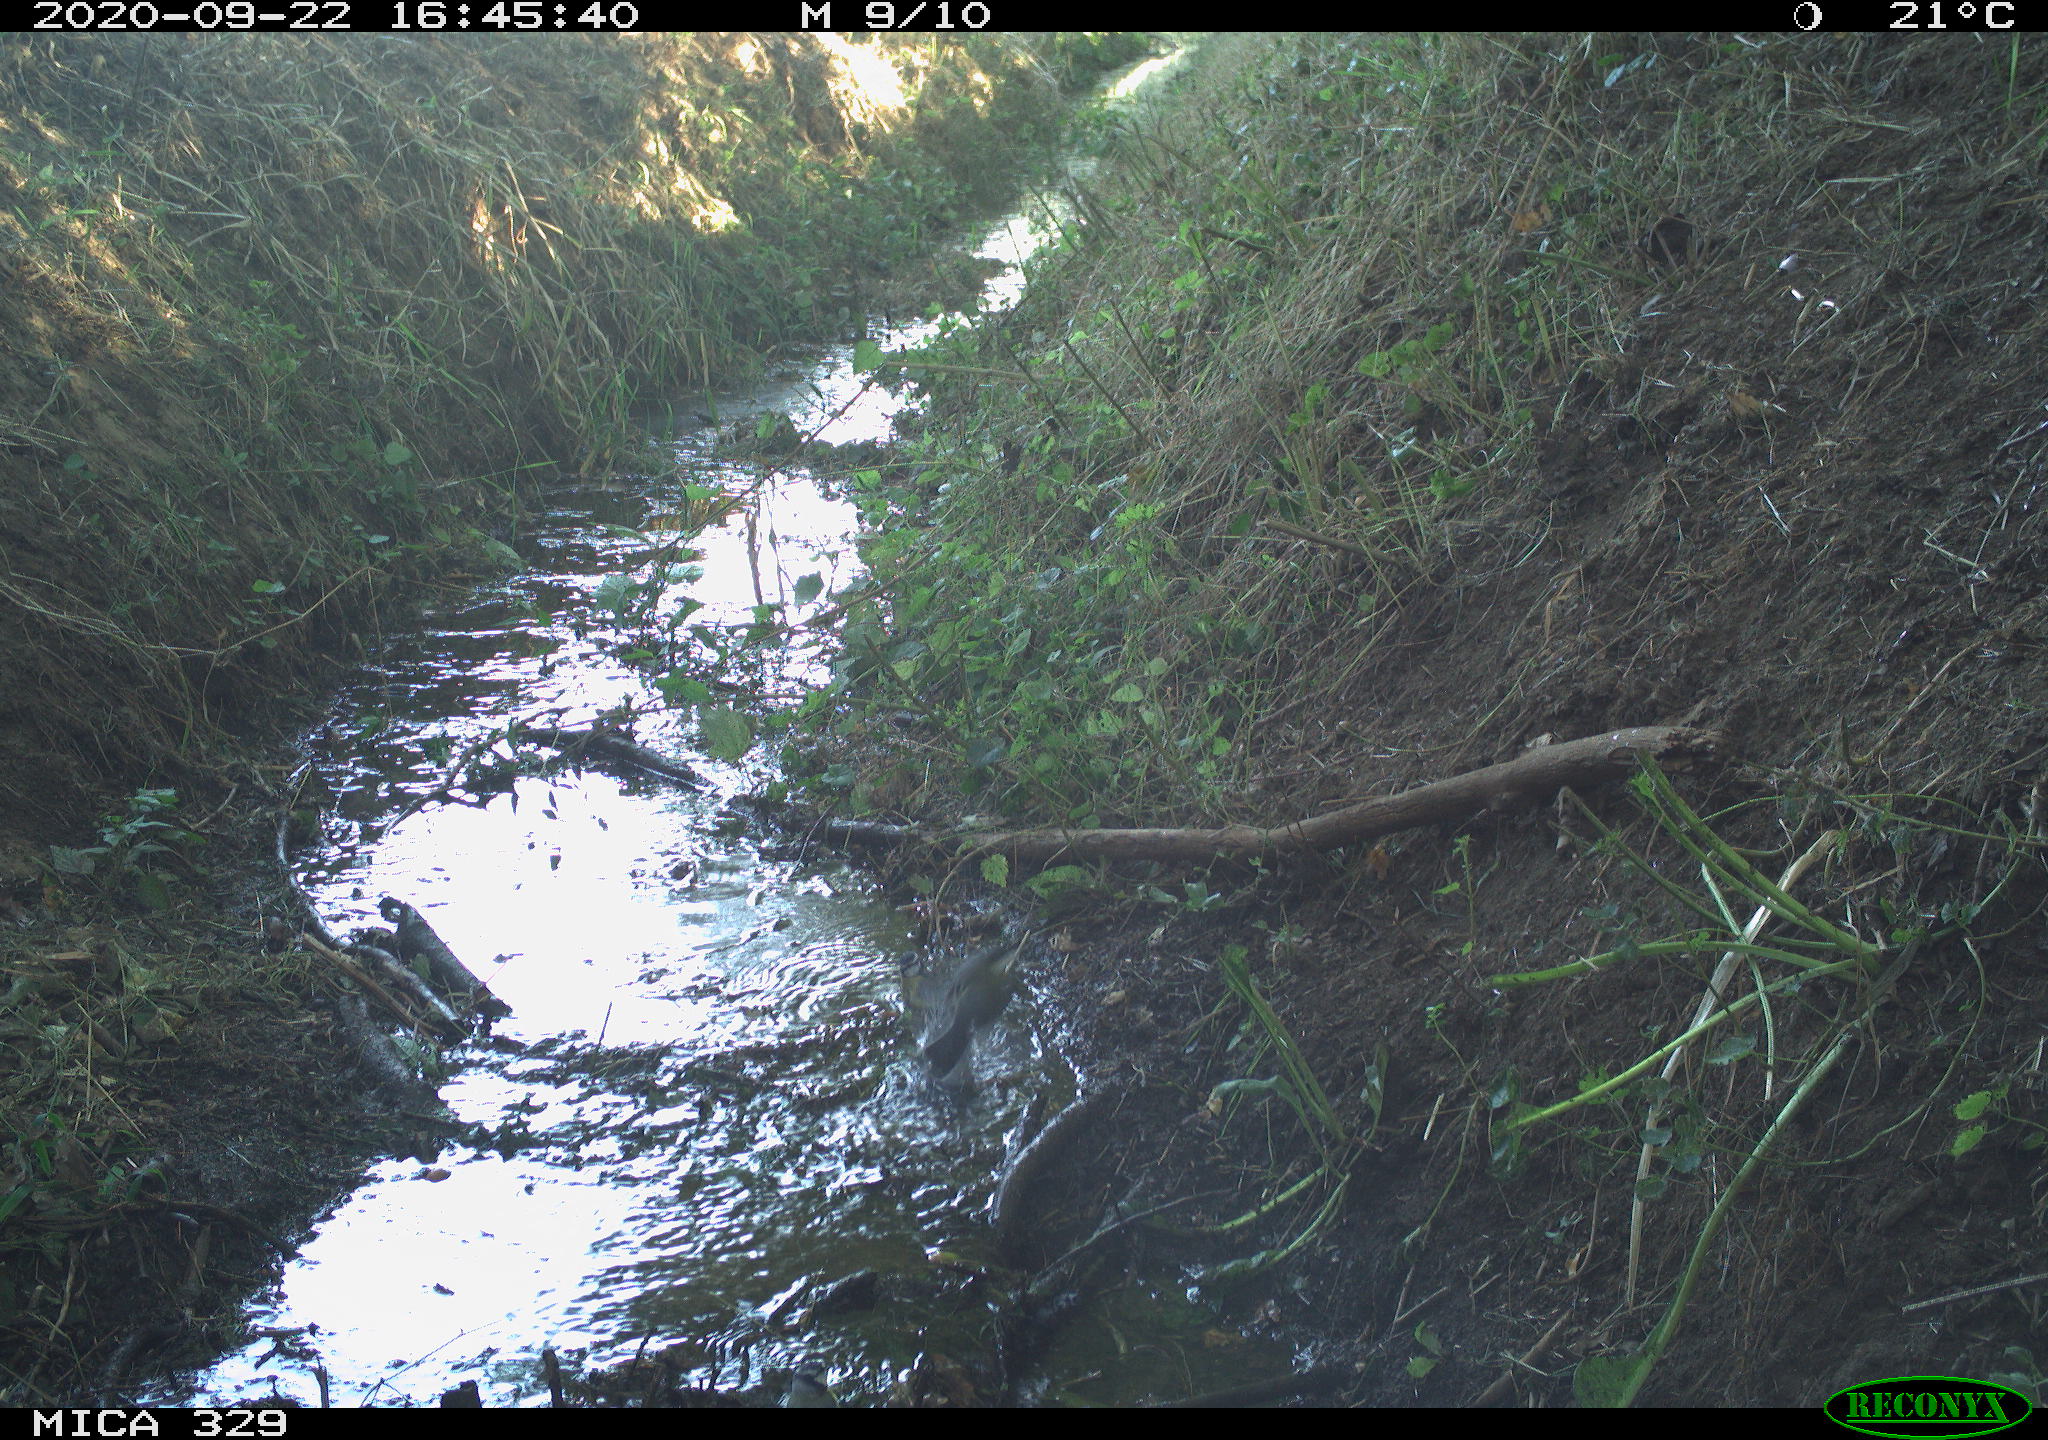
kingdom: Animalia
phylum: Chordata
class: Aves
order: Passeriformes
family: Paridae
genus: Parus
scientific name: Parus major
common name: Great tit
